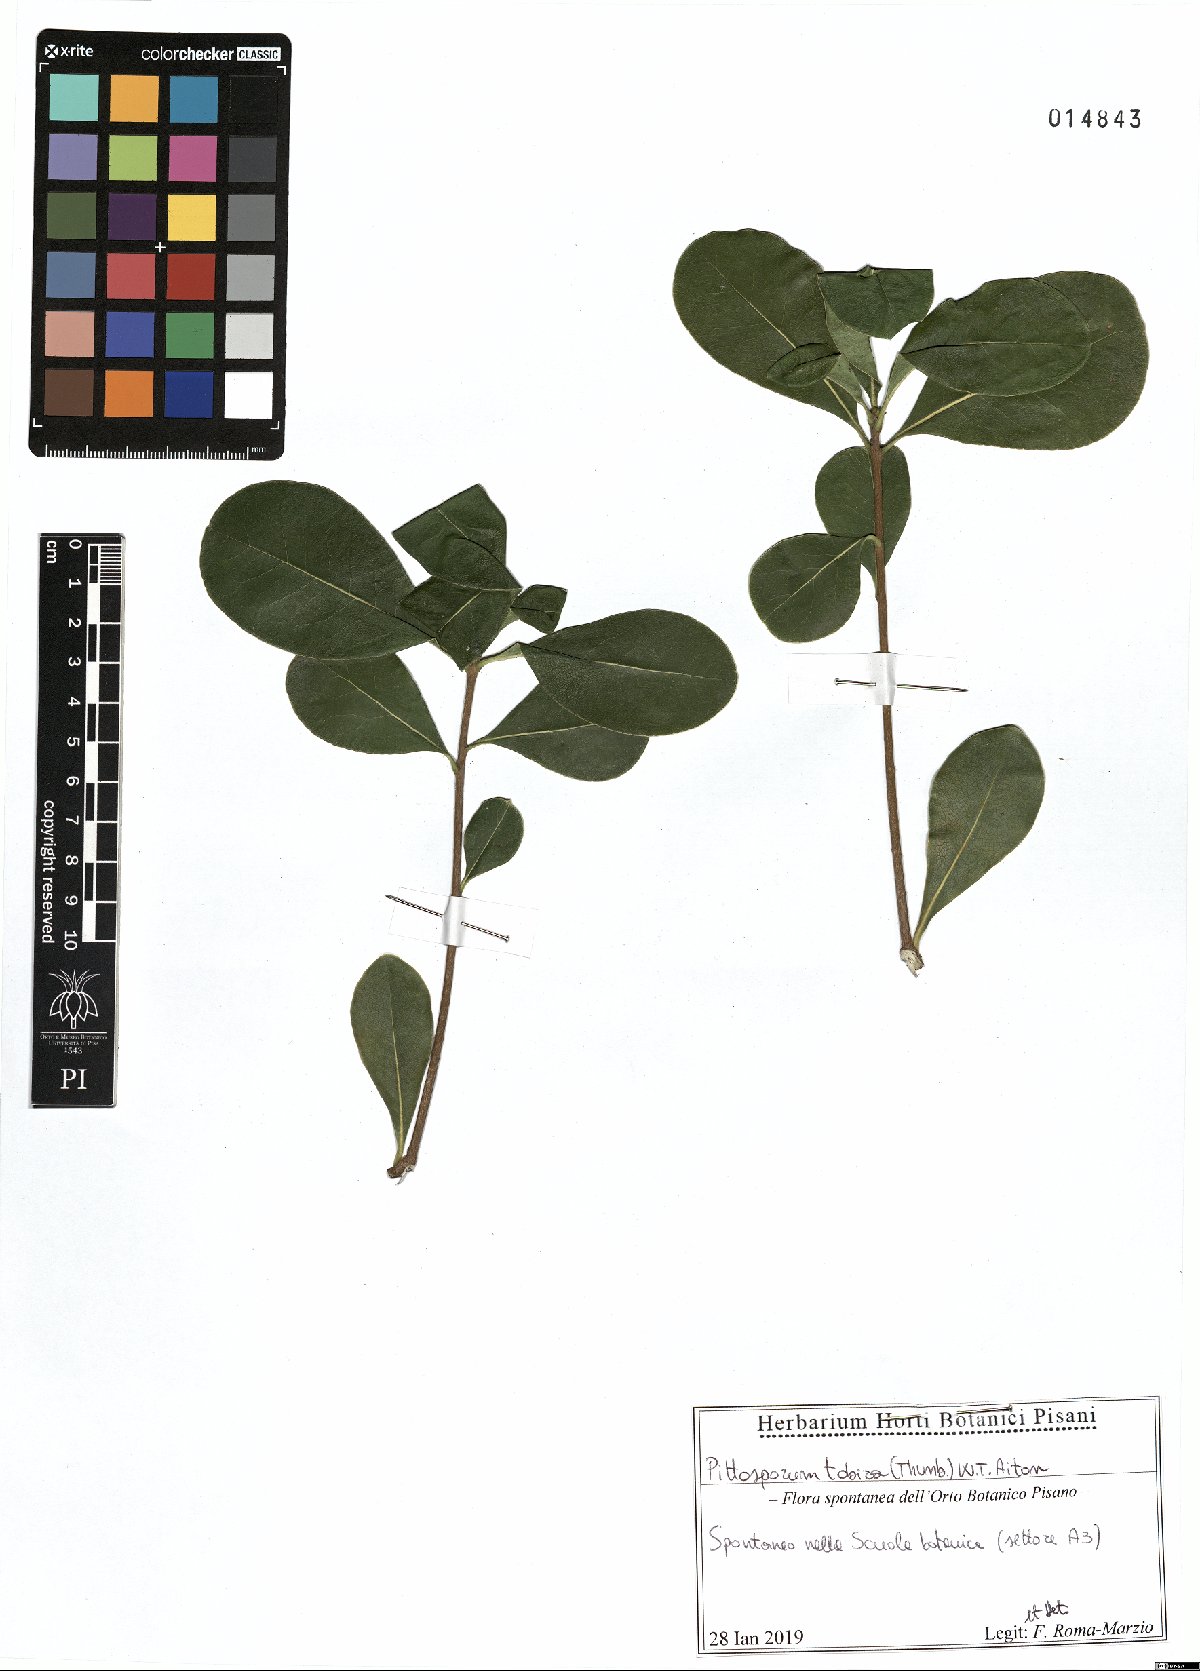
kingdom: Plantae
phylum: Tracheophyta
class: Magnoliopsida
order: Apiales
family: Pittosporaceae
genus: Pittosporum
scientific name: Pittosporum tobira
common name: Japanese cheesewood
